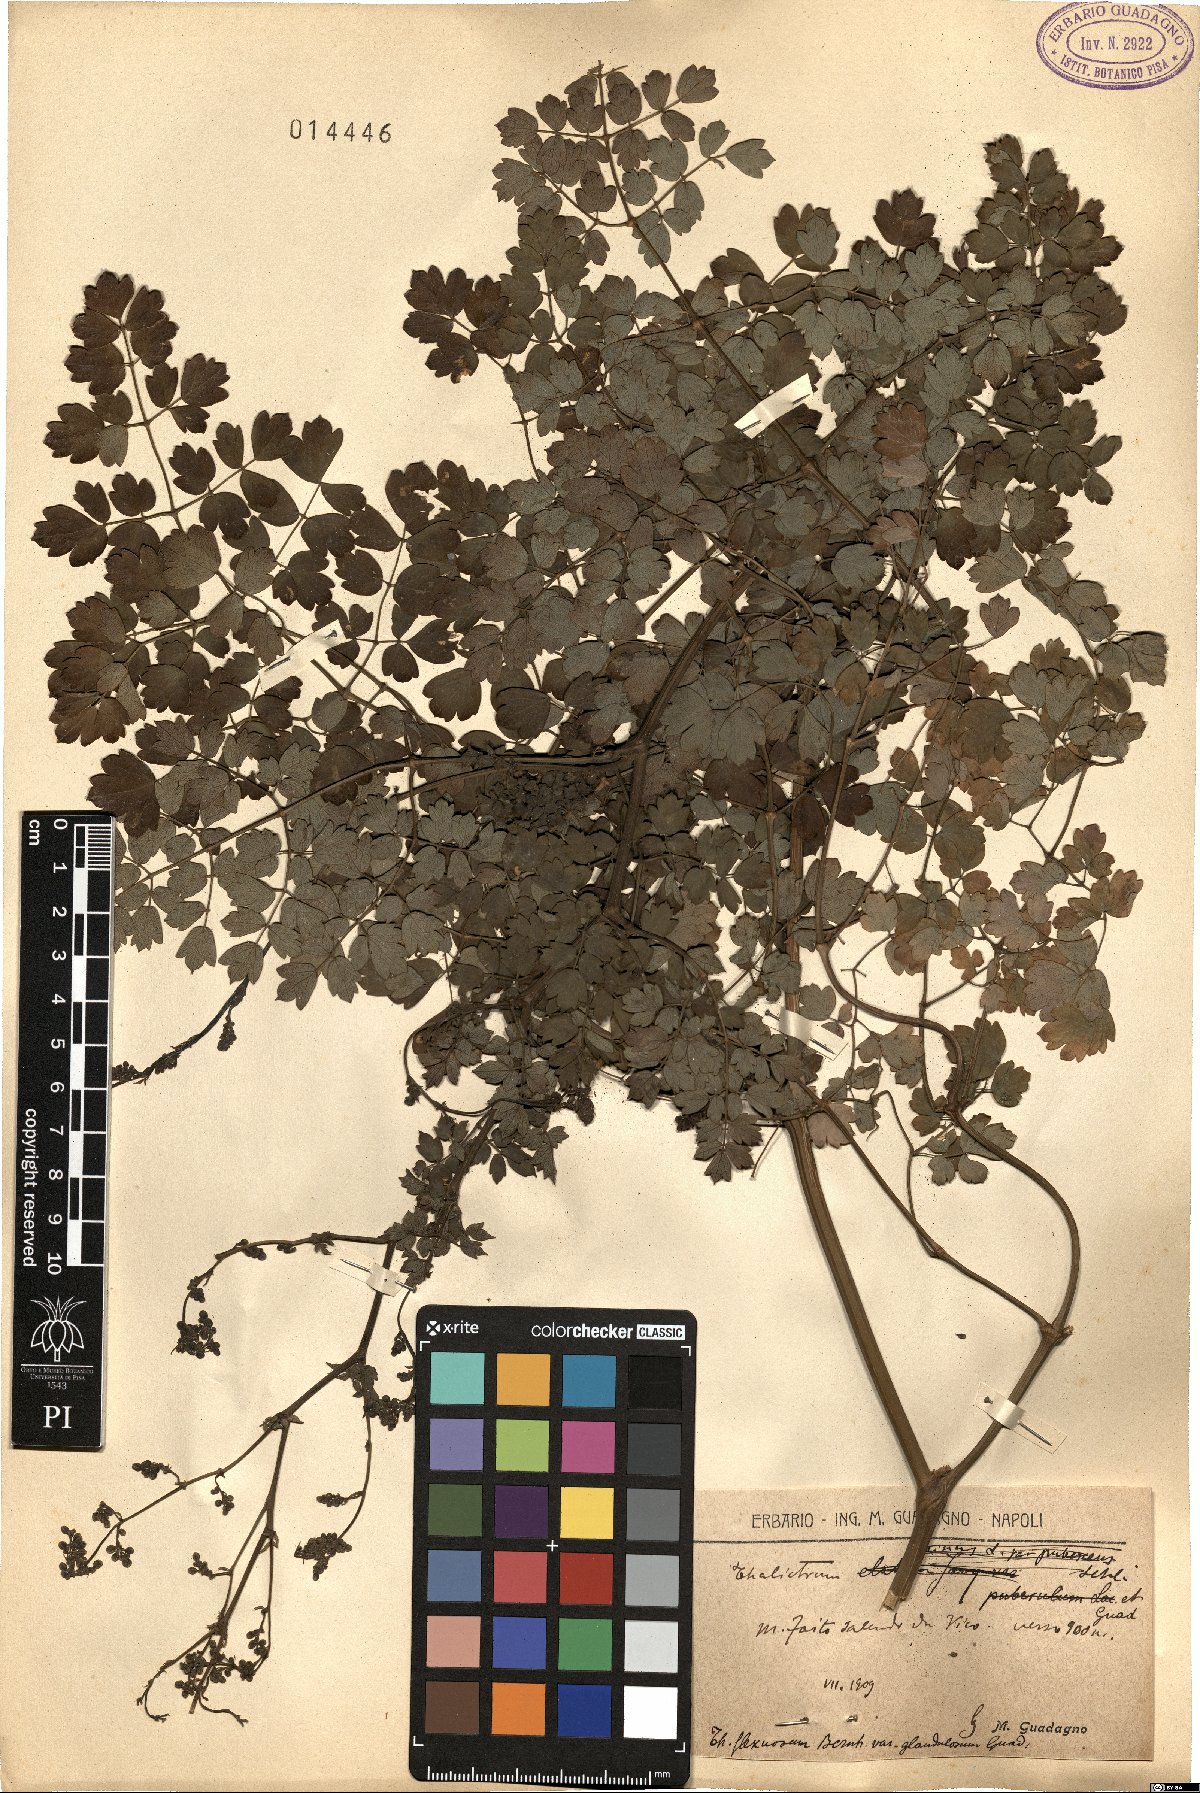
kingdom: Plantae
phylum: Tracheophyta
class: Magnoliopsida
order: Ranunculales
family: Ranunculaceae
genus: Thalictrum
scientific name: Thalictrum minus
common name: Lesser meadow-rue
